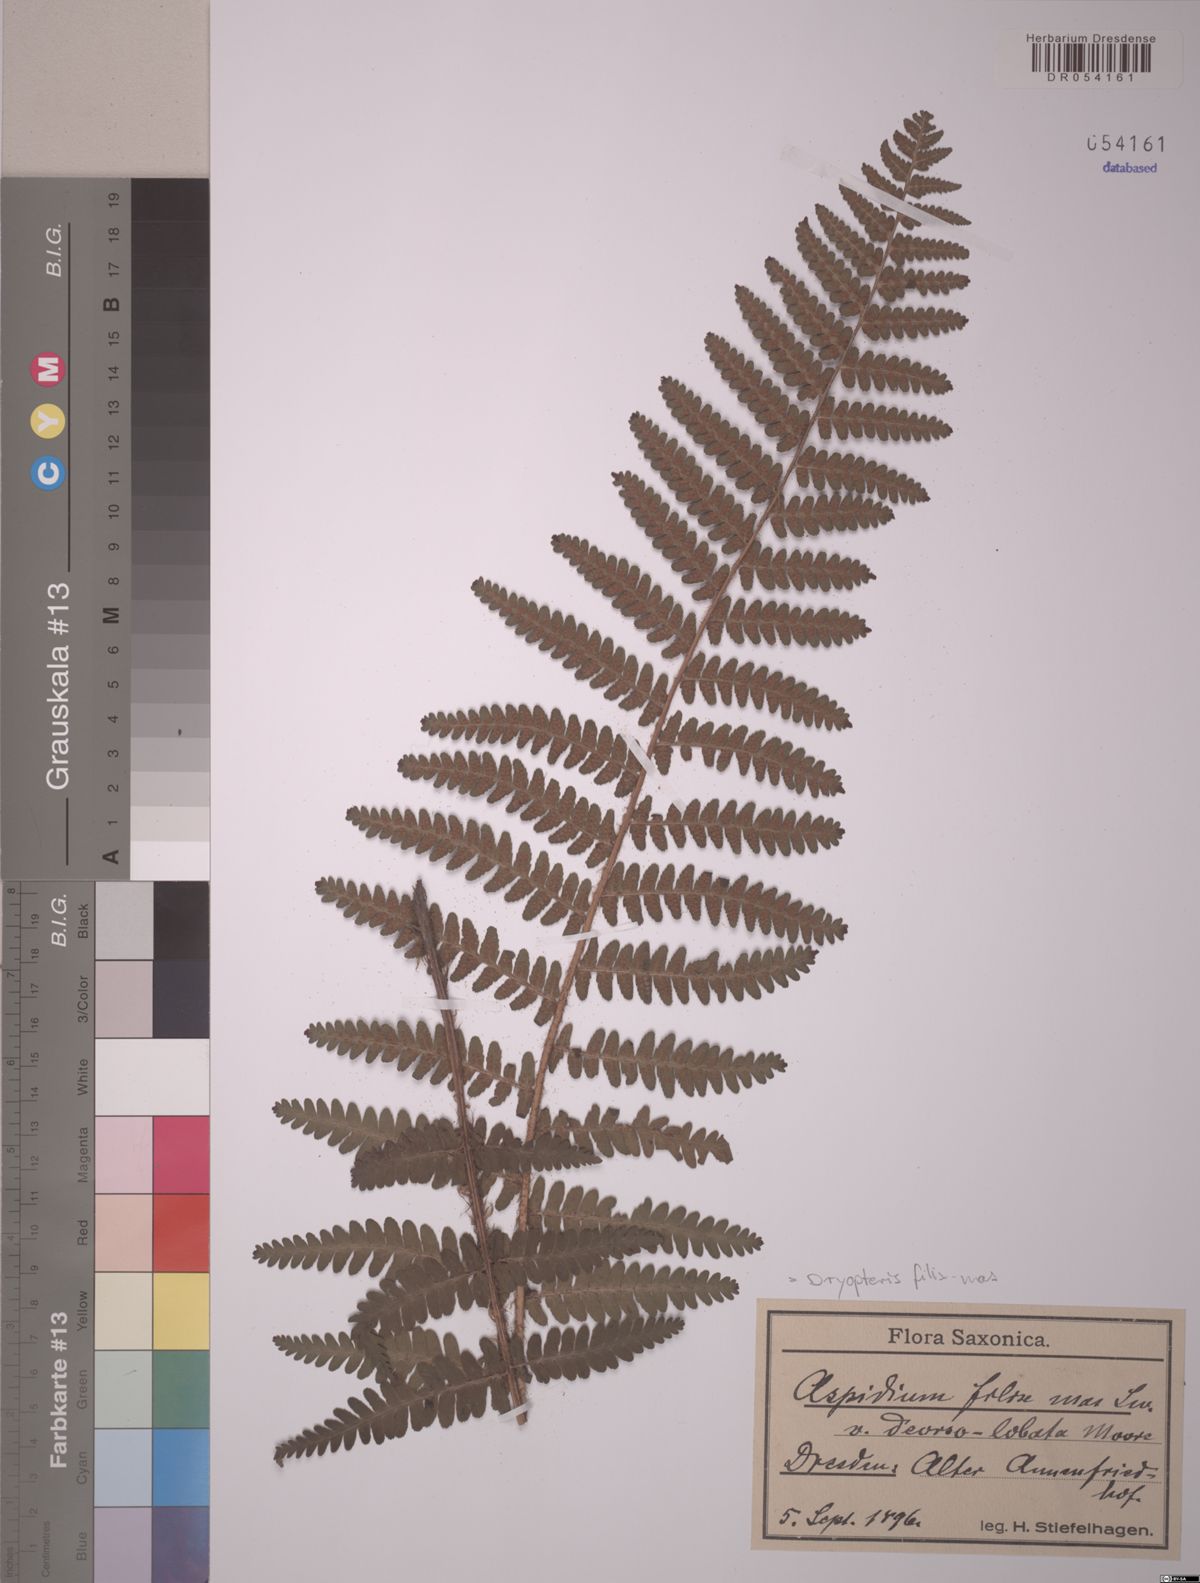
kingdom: Plantae
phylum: Tracheophyta
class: Polypodiopsida
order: Polypodiales
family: Dryopteridaceae
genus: Dryopteris
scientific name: Dryopteris filix-mas
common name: Male fern
